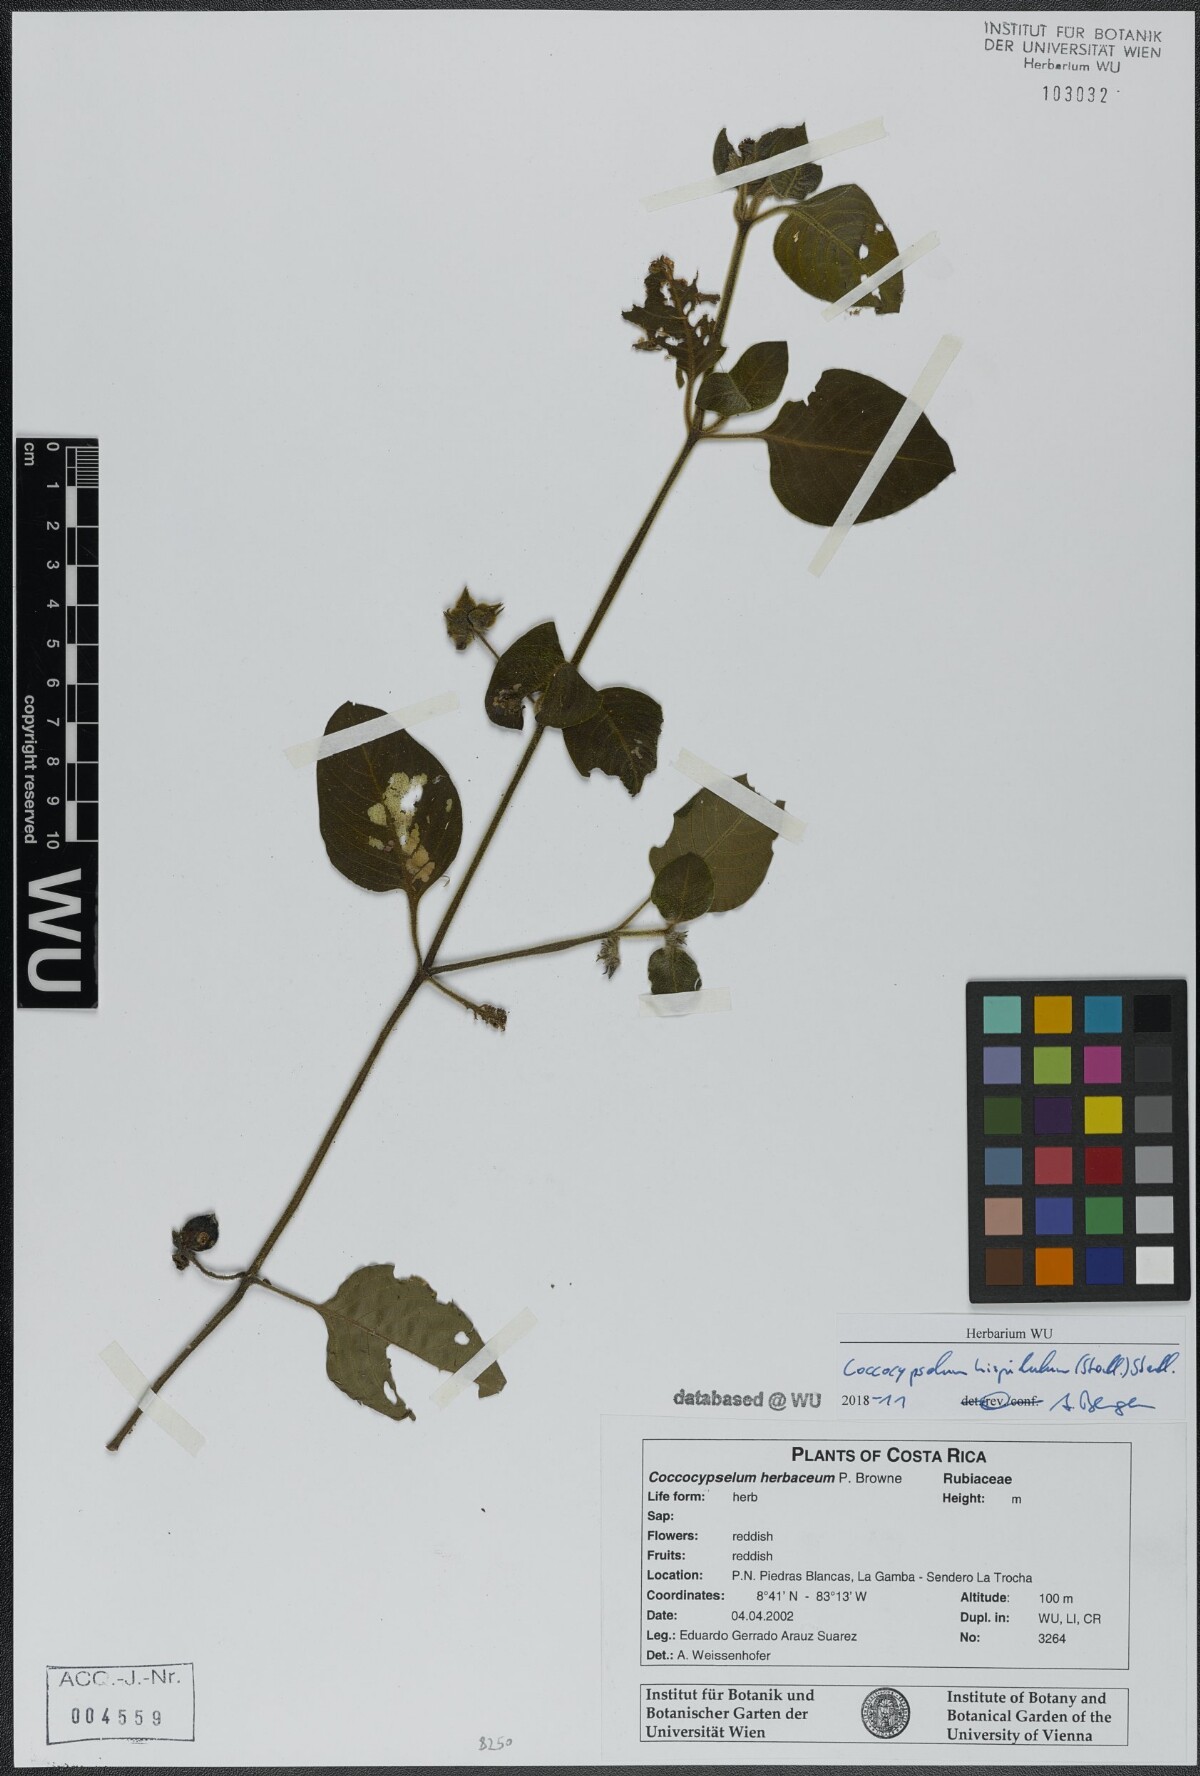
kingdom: Plantae
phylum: Tracheophyta
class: Magnoliopsida
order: Gentianales
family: Rubiaceae
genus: Coccocypselum
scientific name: Coccocypselum hispidulum
